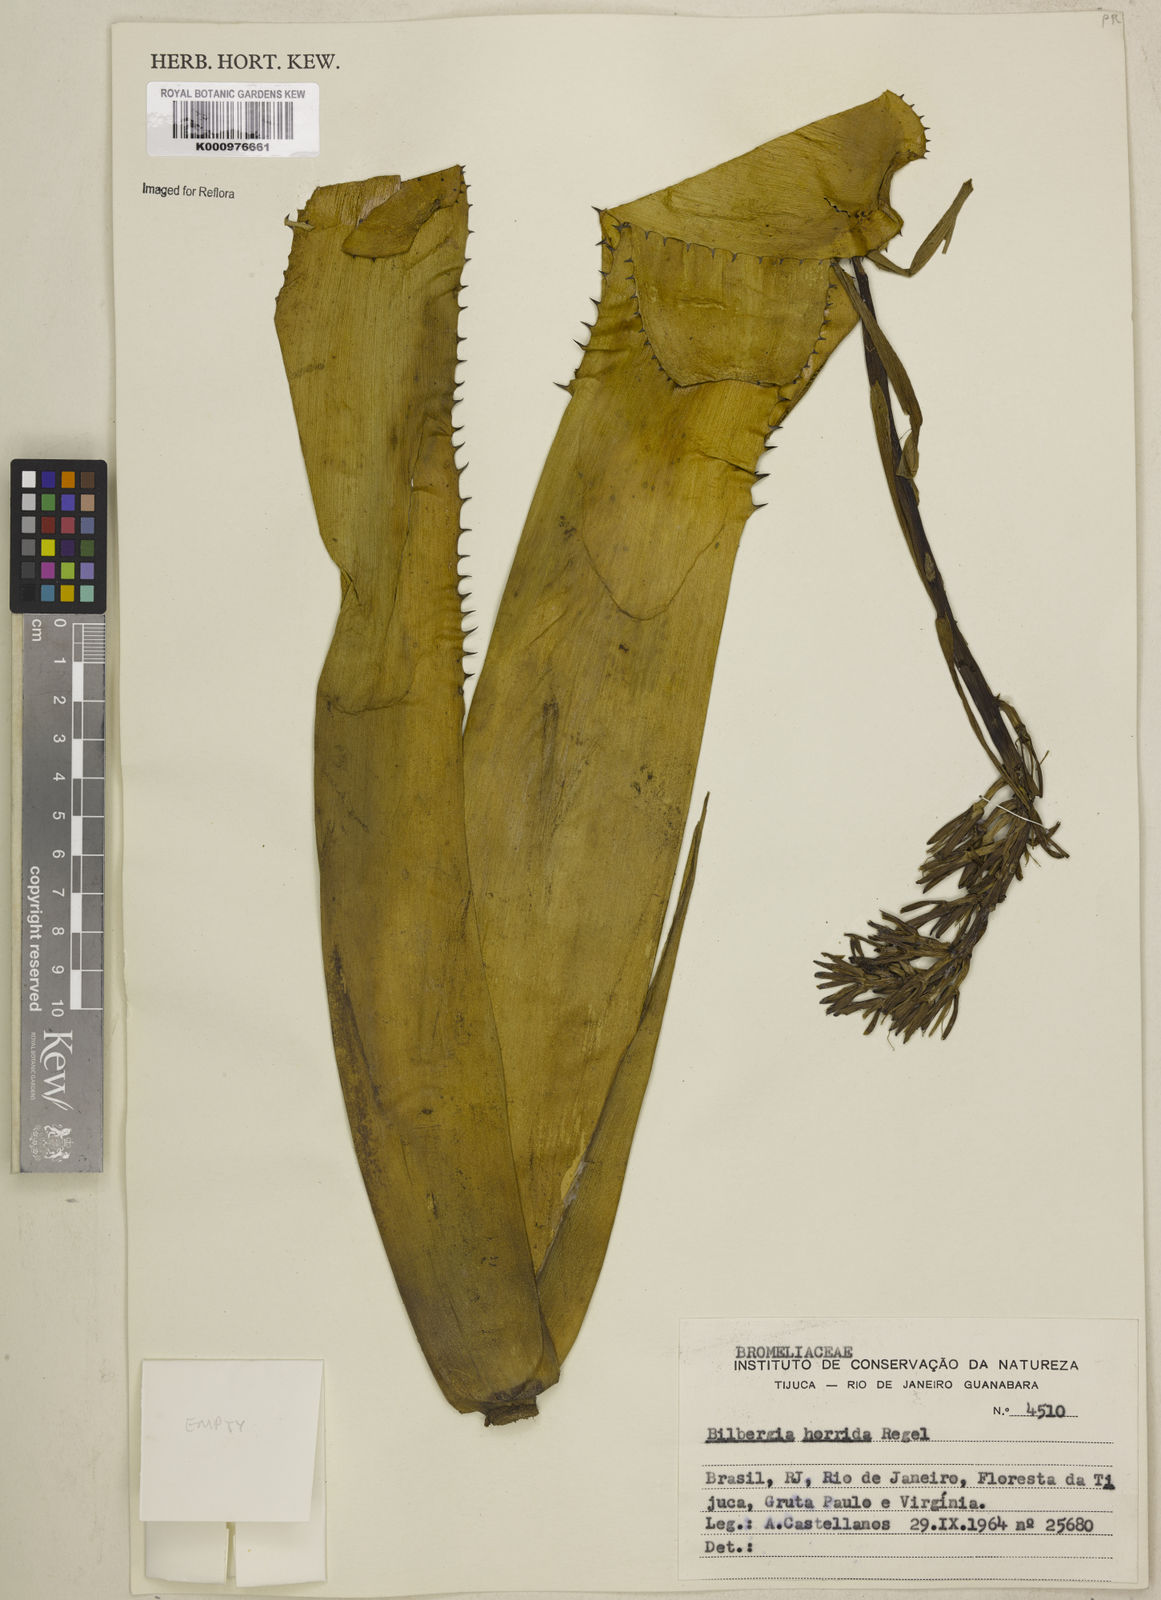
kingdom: Plantae
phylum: Tracheophyta
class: Liliopsida
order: Poales
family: Bromeliaceae
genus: Billbergia
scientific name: Billbergia horrida
